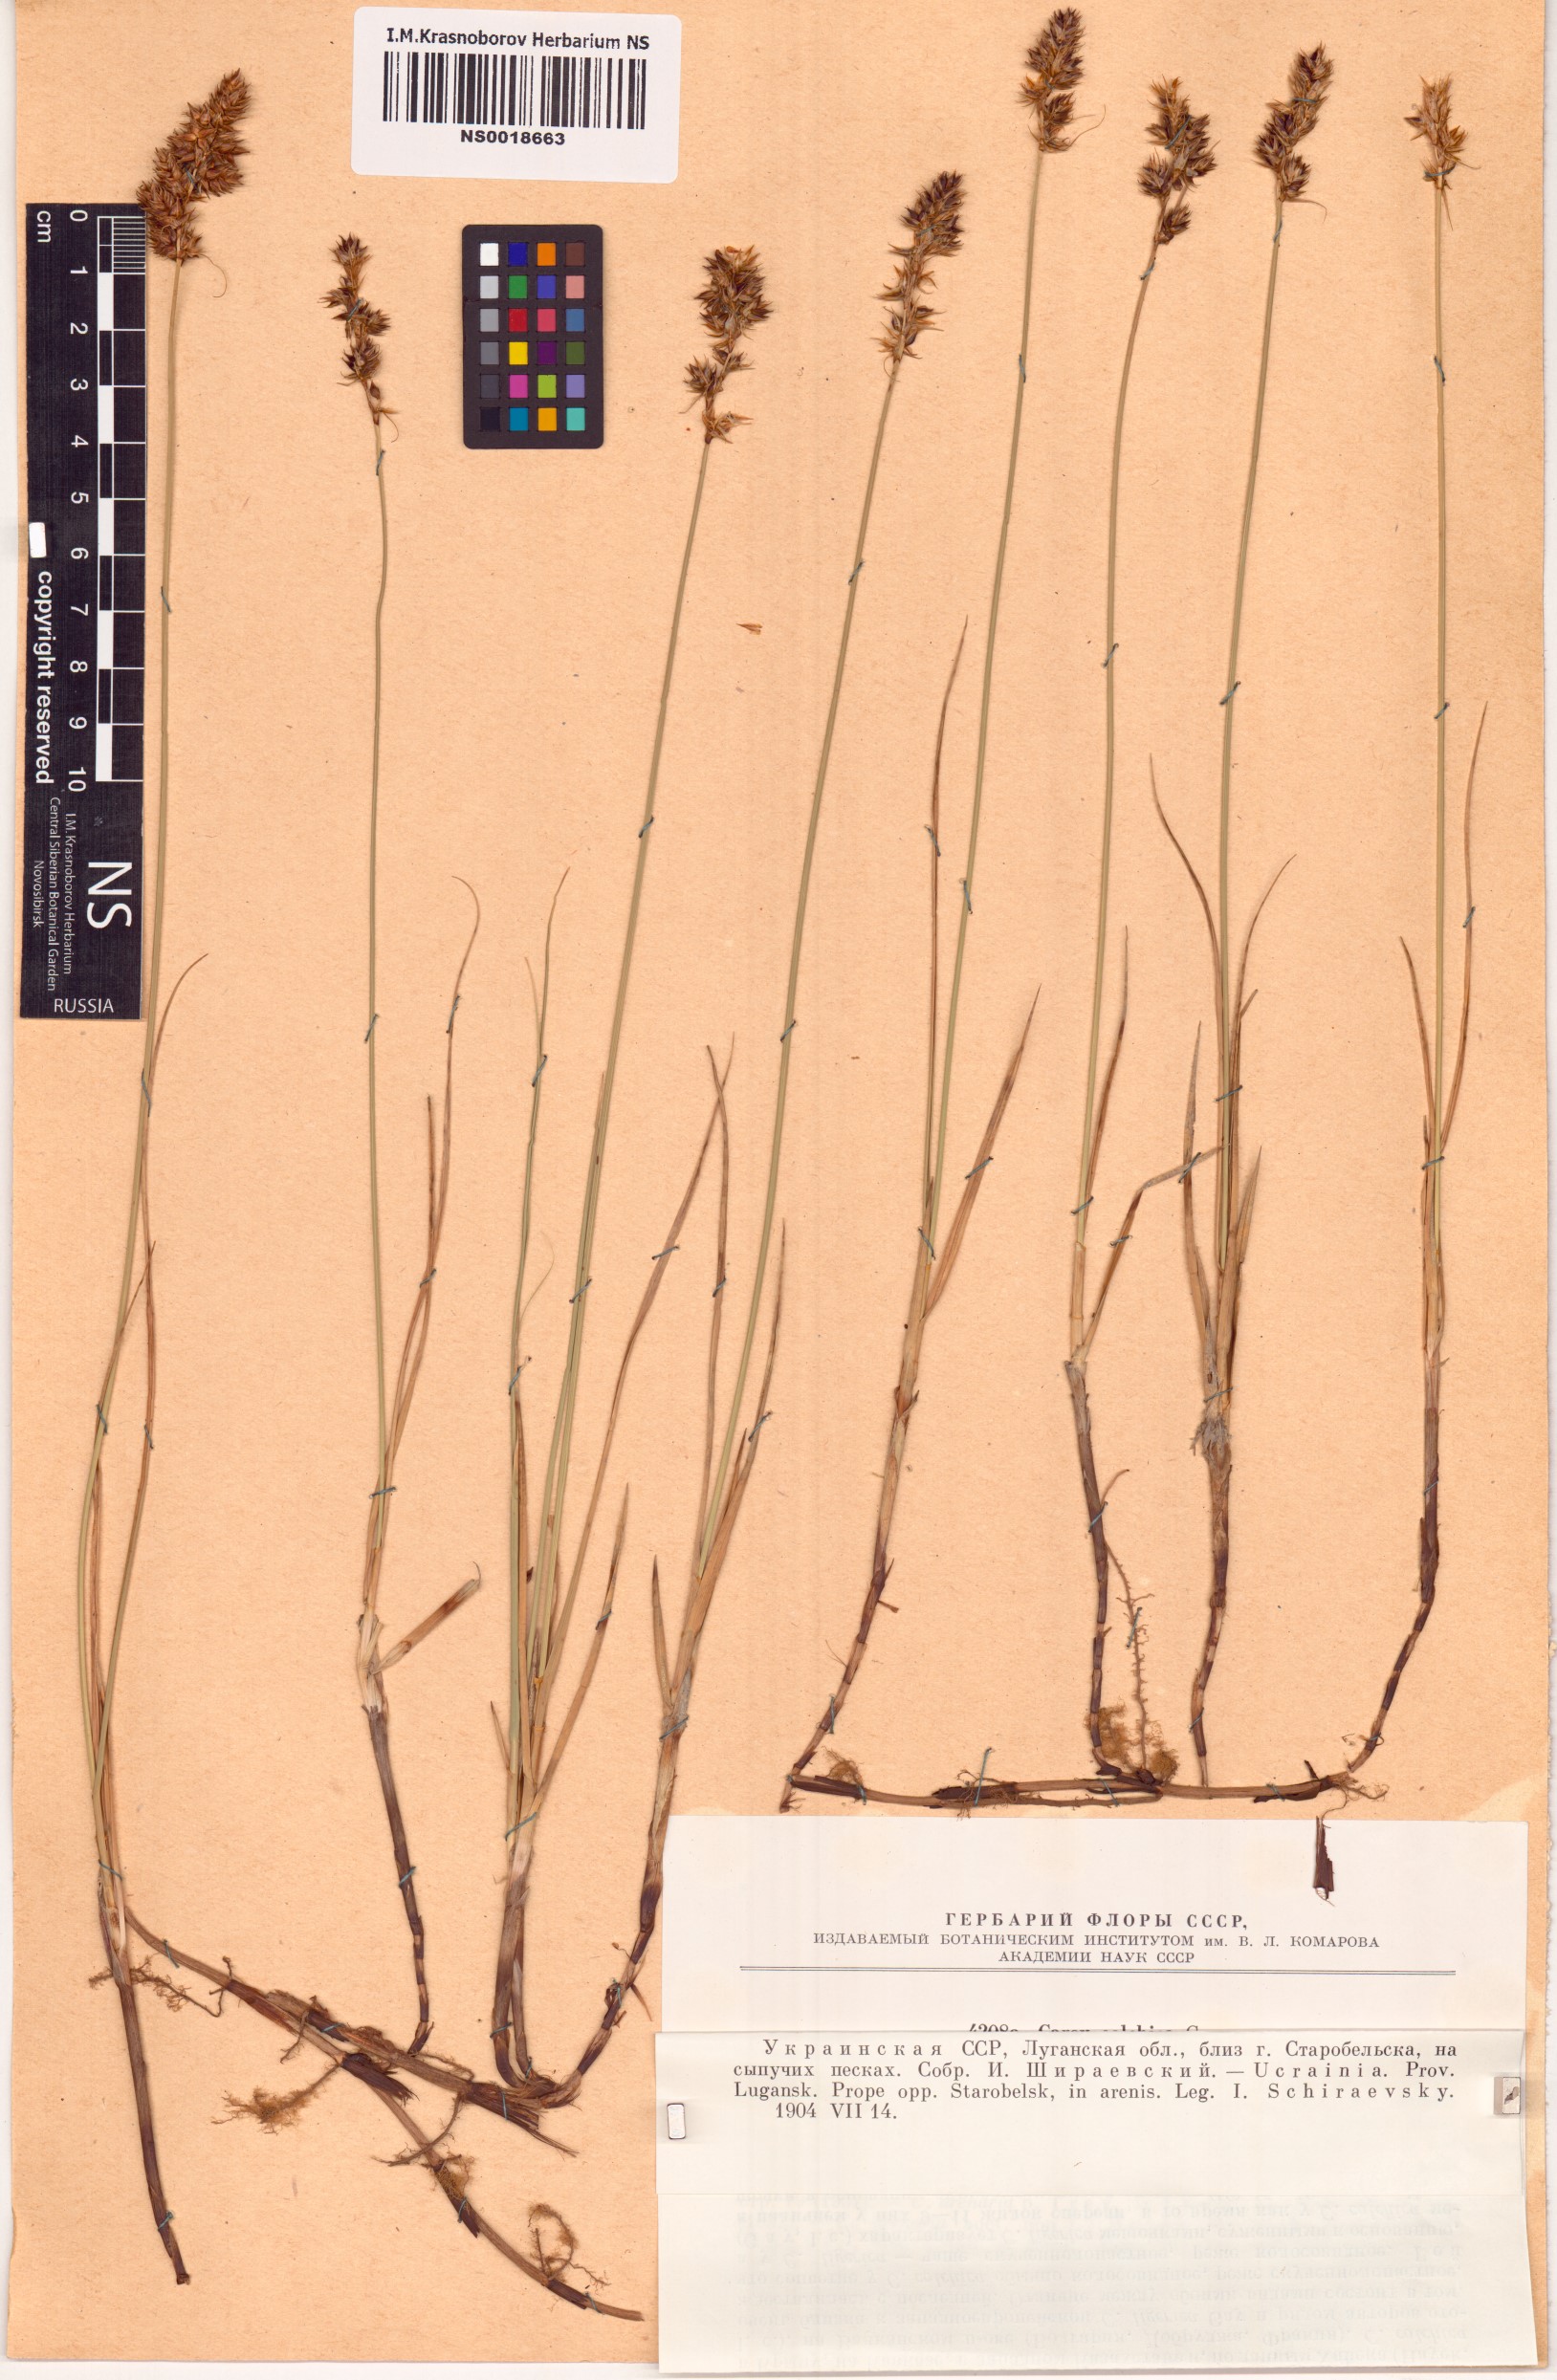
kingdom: Plantae
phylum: Tracheophyta
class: Liliopsida
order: Poales
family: Cyperaceae
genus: Carex
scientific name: Carex colchica
